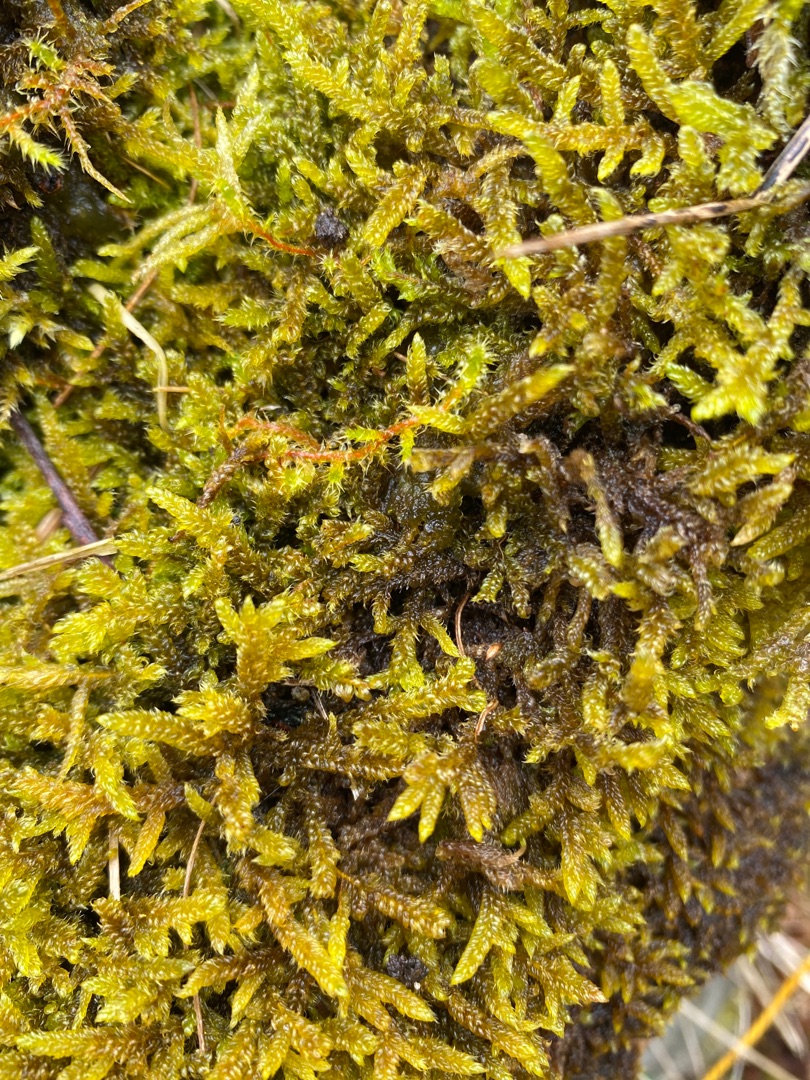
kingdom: Plantae
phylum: Bryophyta
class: Bryopsida
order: Hypnales
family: Hypnaceae
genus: Hypnum
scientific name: Hypnum cupressiforme
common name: Almindelig cypresmos
